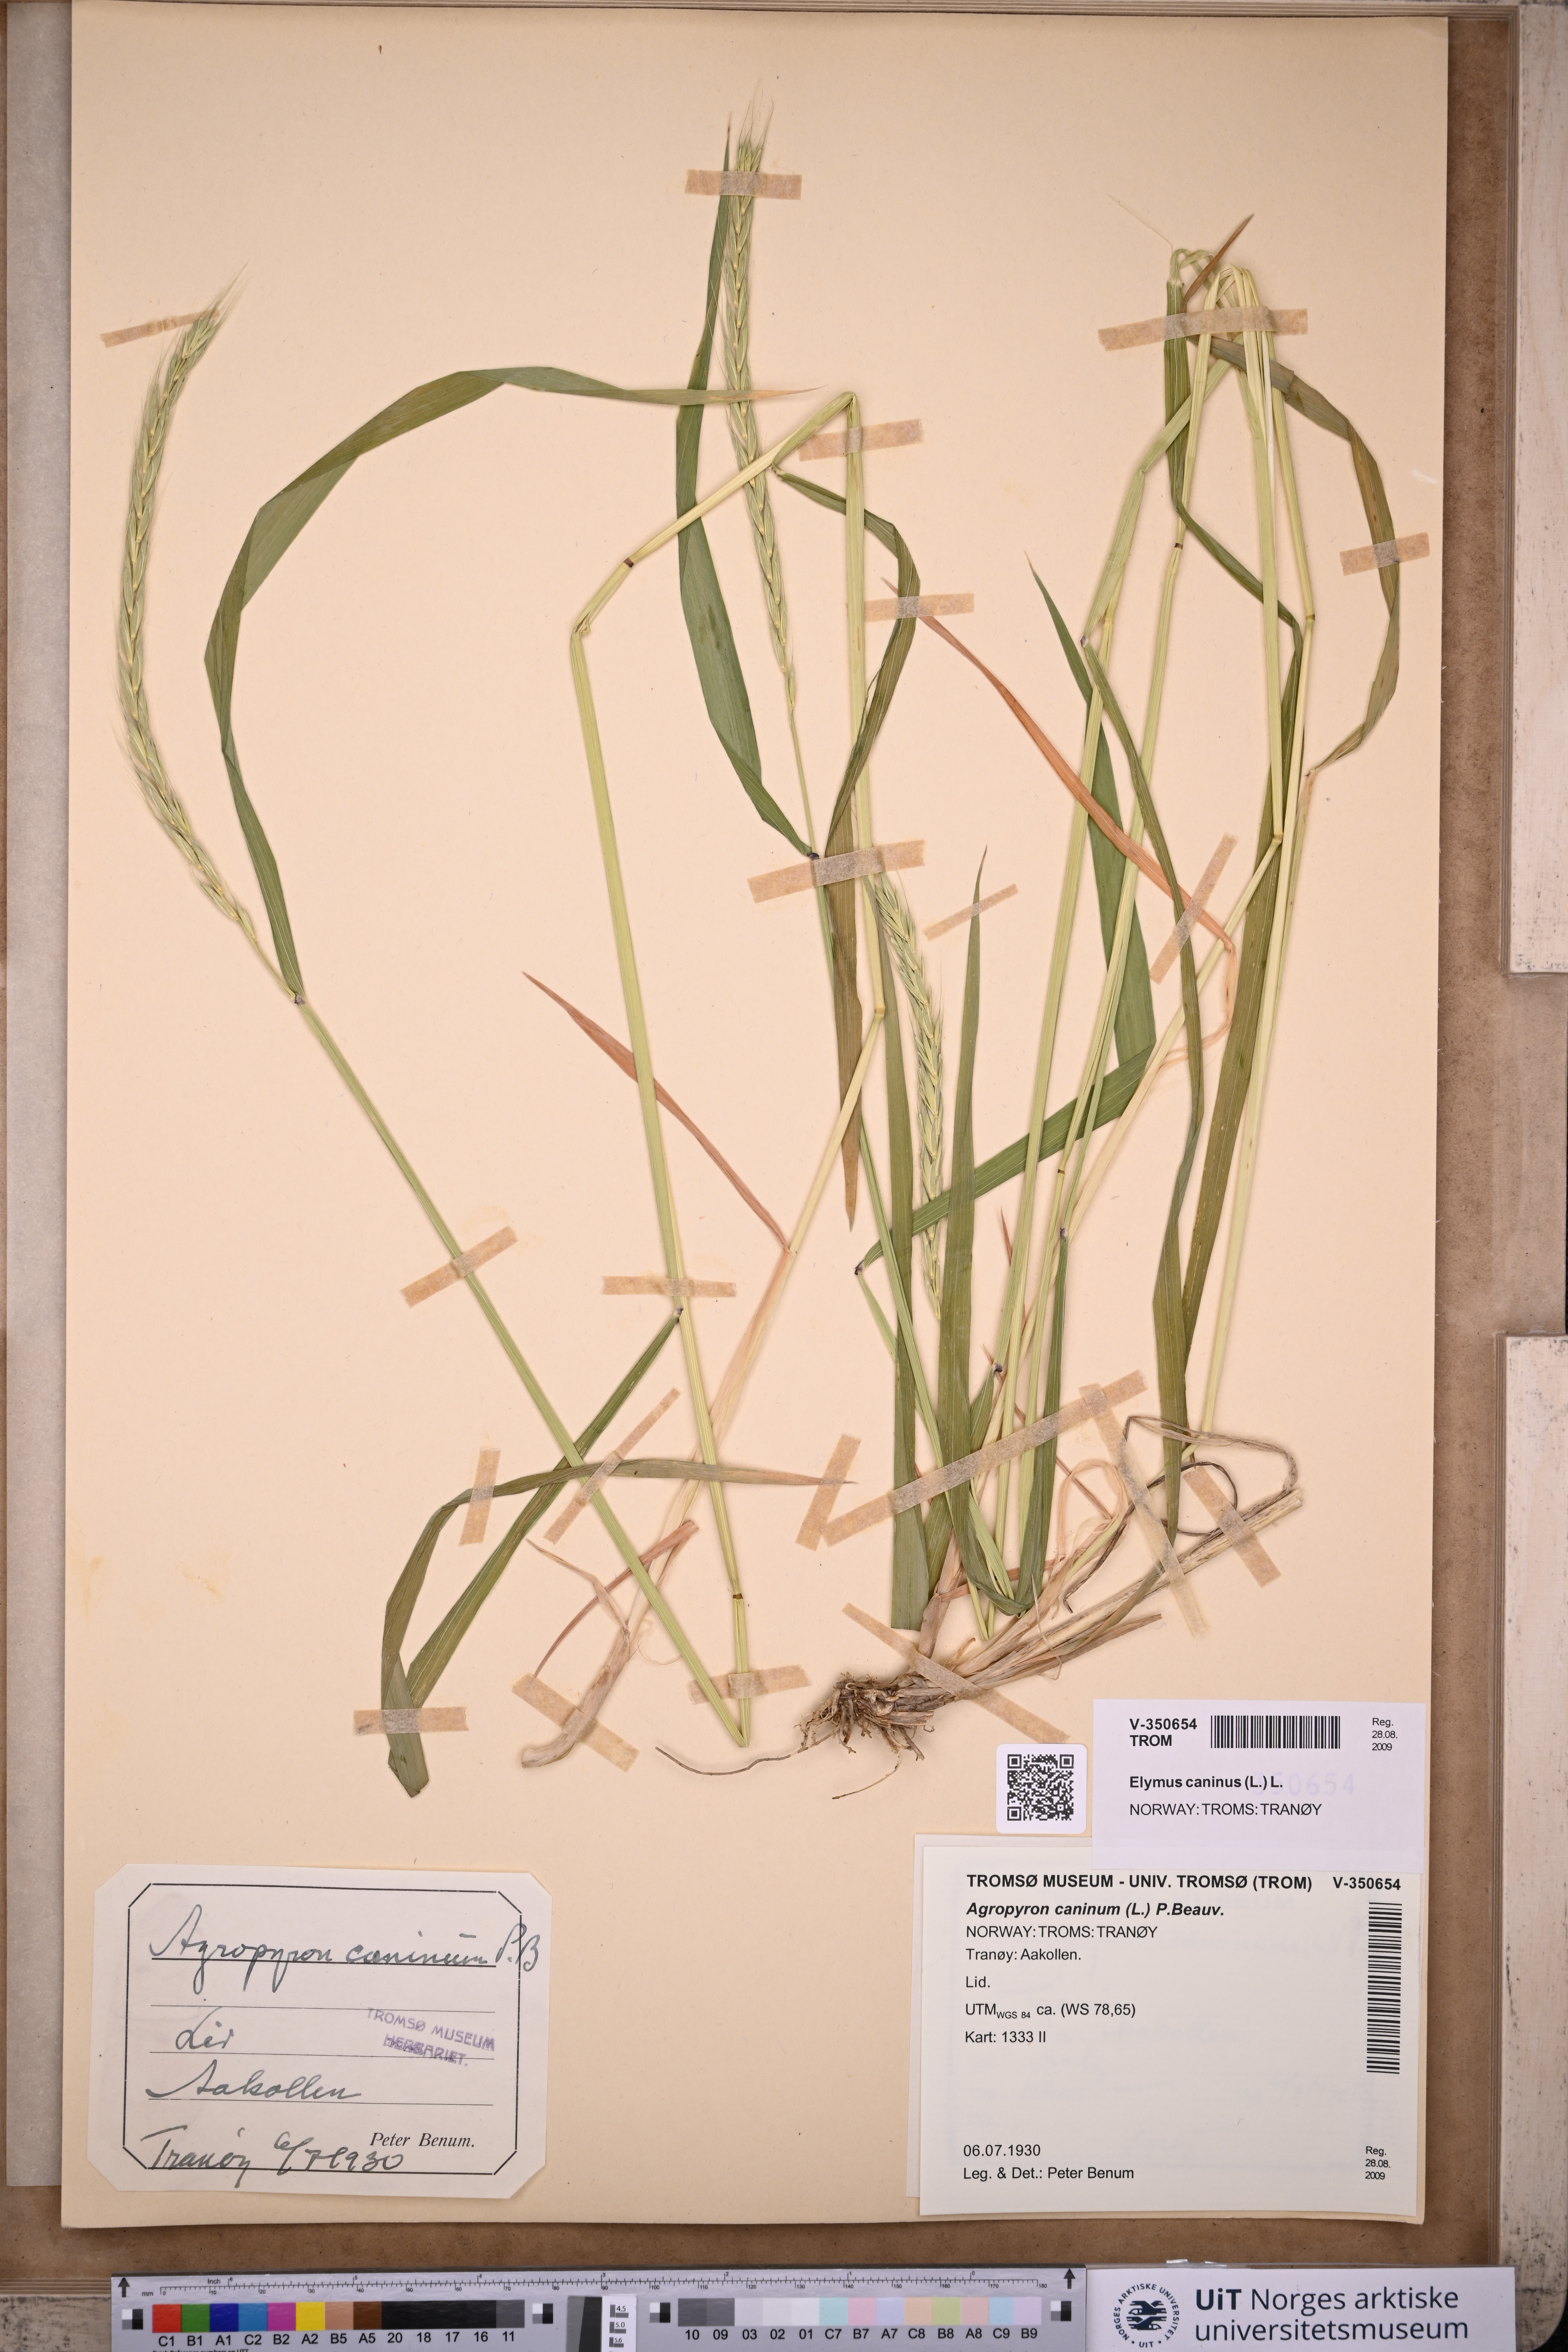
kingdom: Plantae
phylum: Tracheophyta
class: Liliopsida
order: Poales
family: Poaceae
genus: Elymus
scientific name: Elymus caninus
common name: Bearded couch
